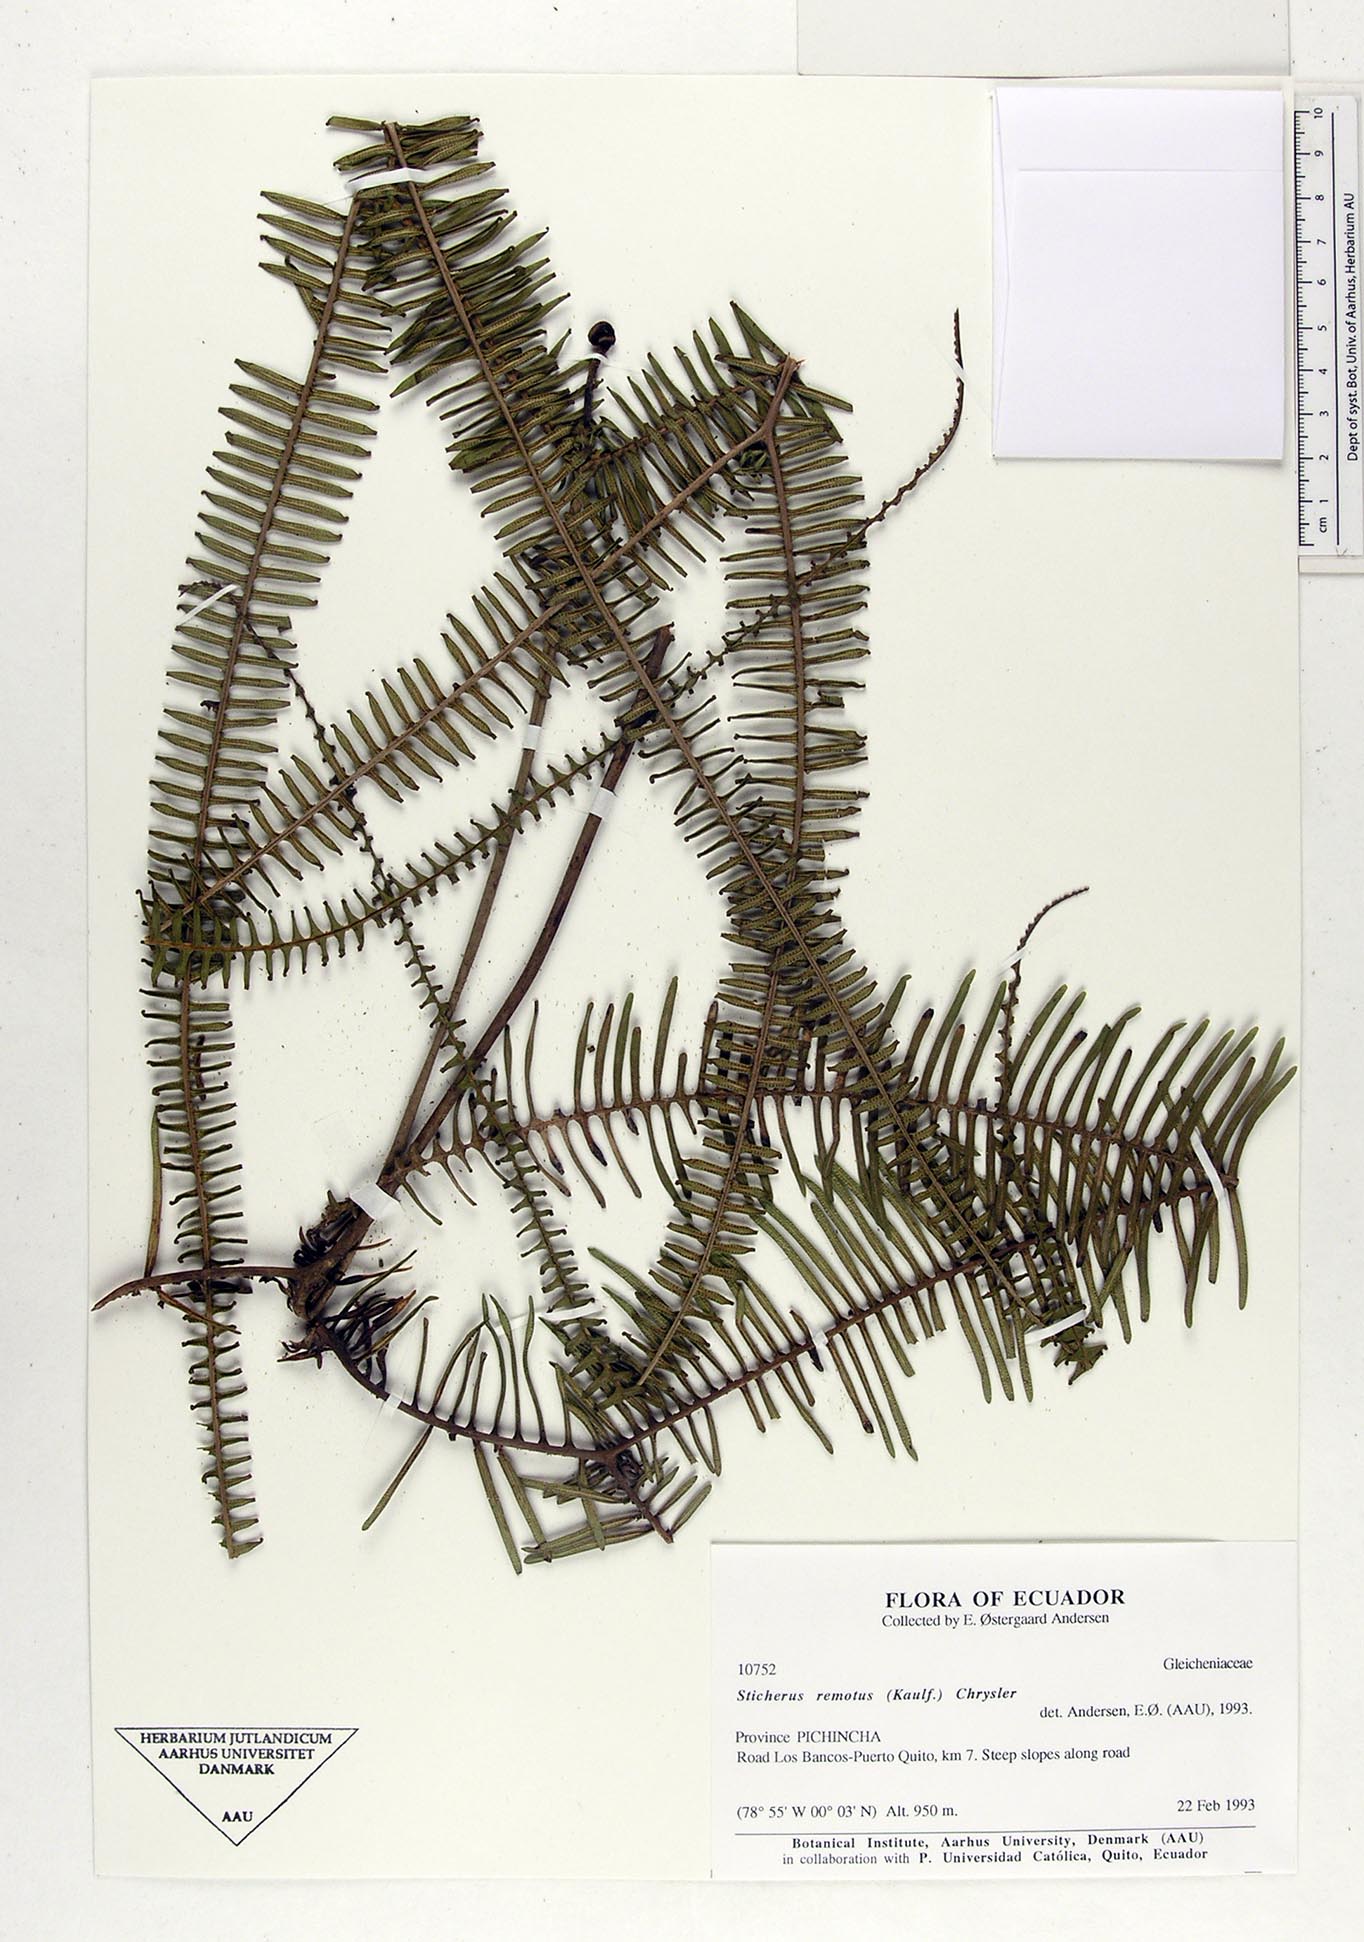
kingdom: Plantae
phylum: Tracheophyta
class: Polypodiopsida
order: Gleicheniales
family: Gleicheniaceae
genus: Sticherus
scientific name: Sticherus remotus
